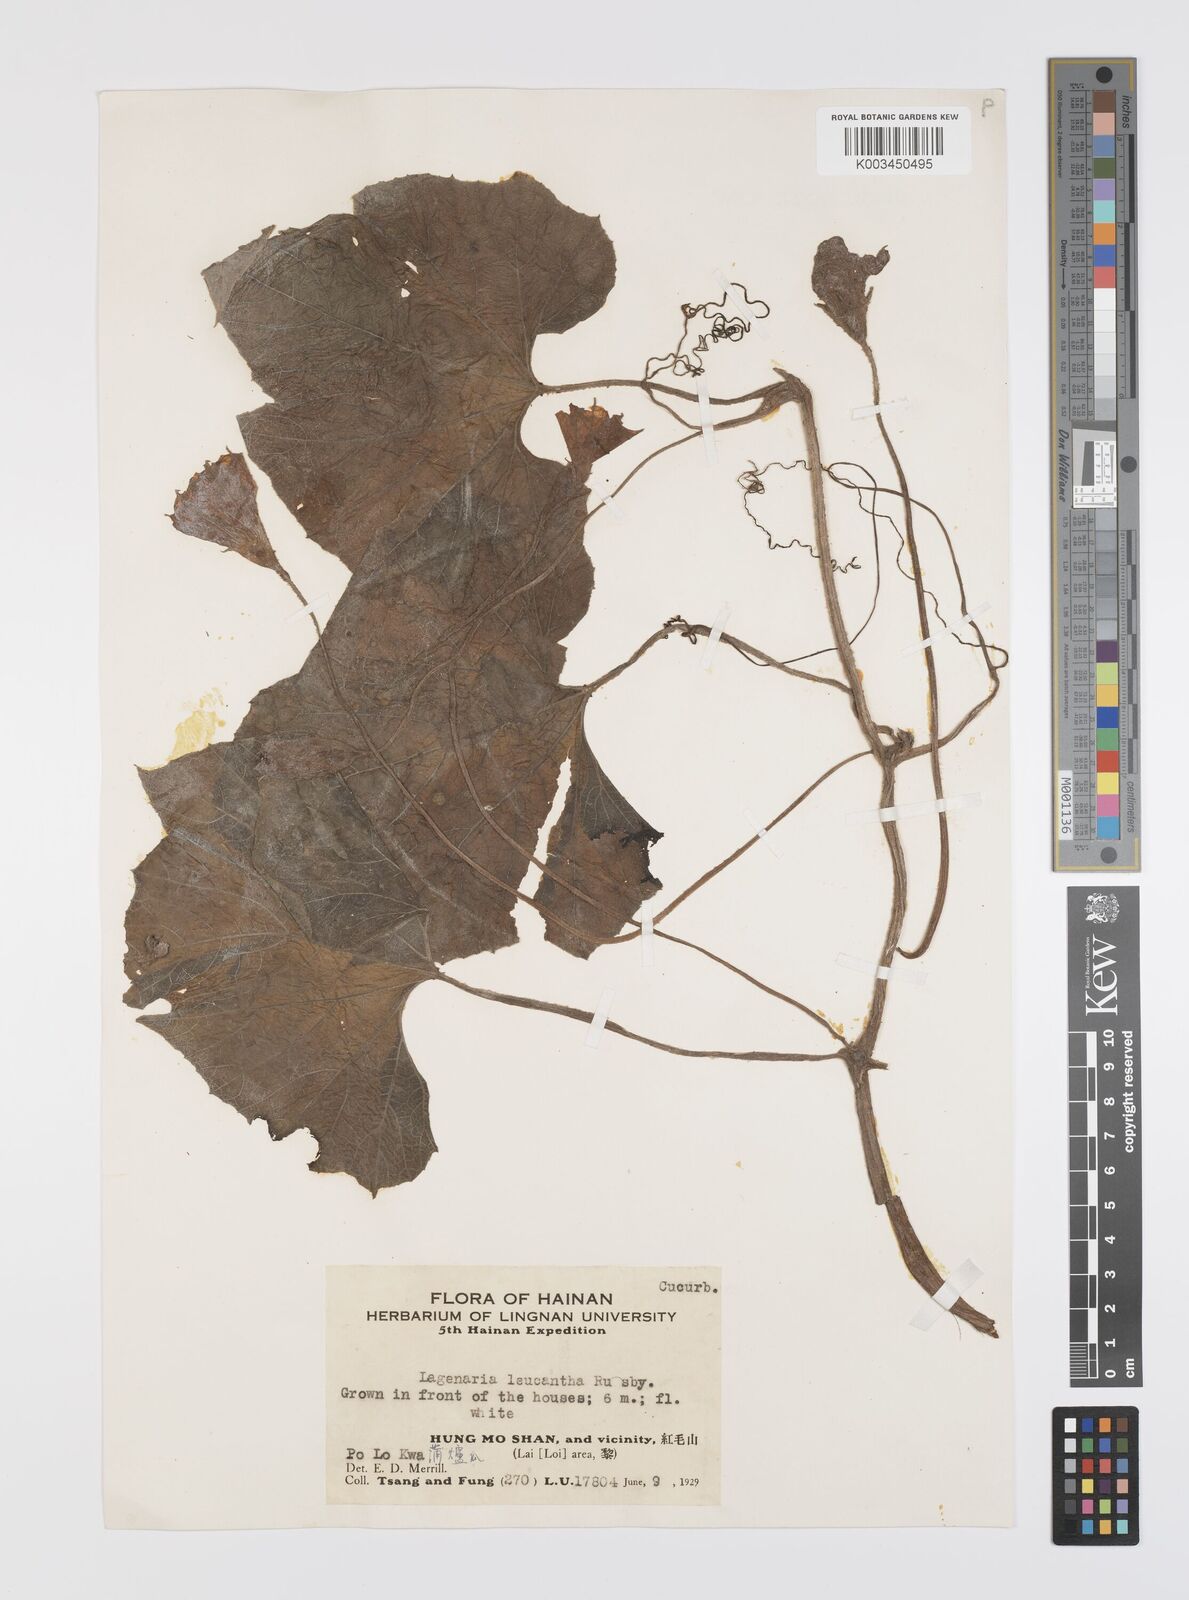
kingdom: Plantae
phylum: Tracheophyta
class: Magnoliopsida
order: Cucurbitales
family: Cucurbitaceae
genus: Lagenaria
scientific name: Lagenaria siceraria
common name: Bottle gourd
